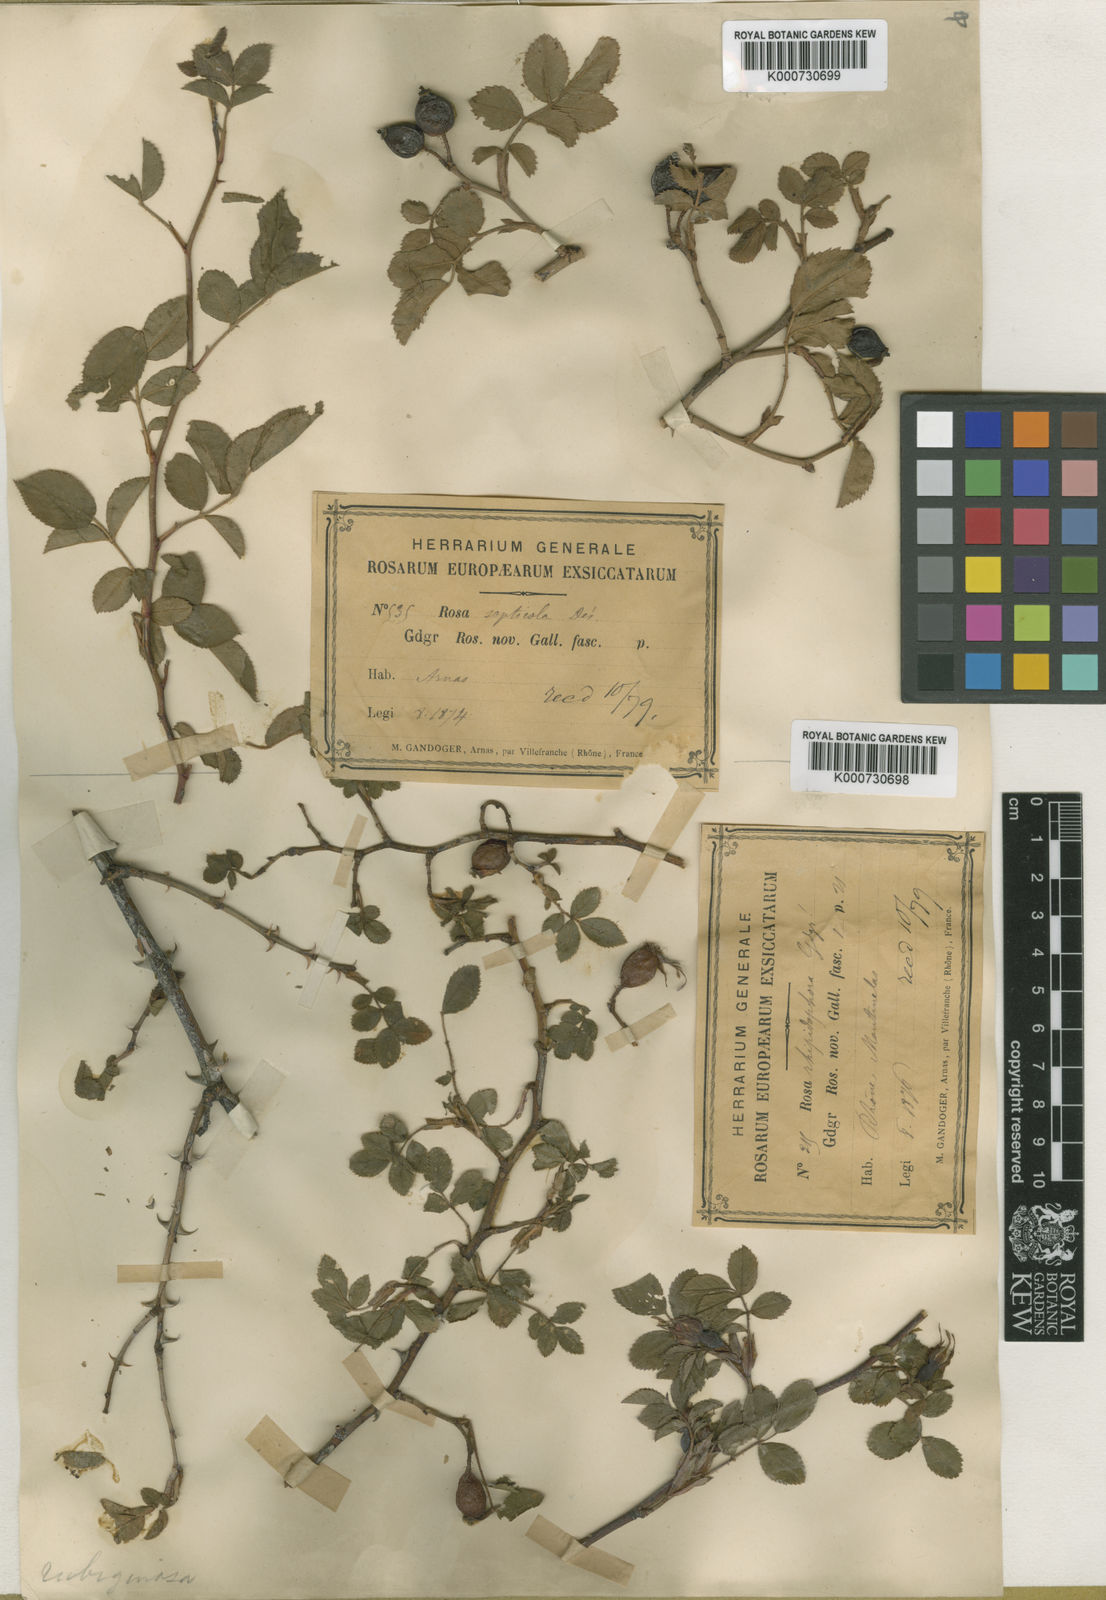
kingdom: Plantae
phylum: Tracheophyta
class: Magnoliopsida
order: Rosales
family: Rosaceae
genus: Rosa
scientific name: Rosa
